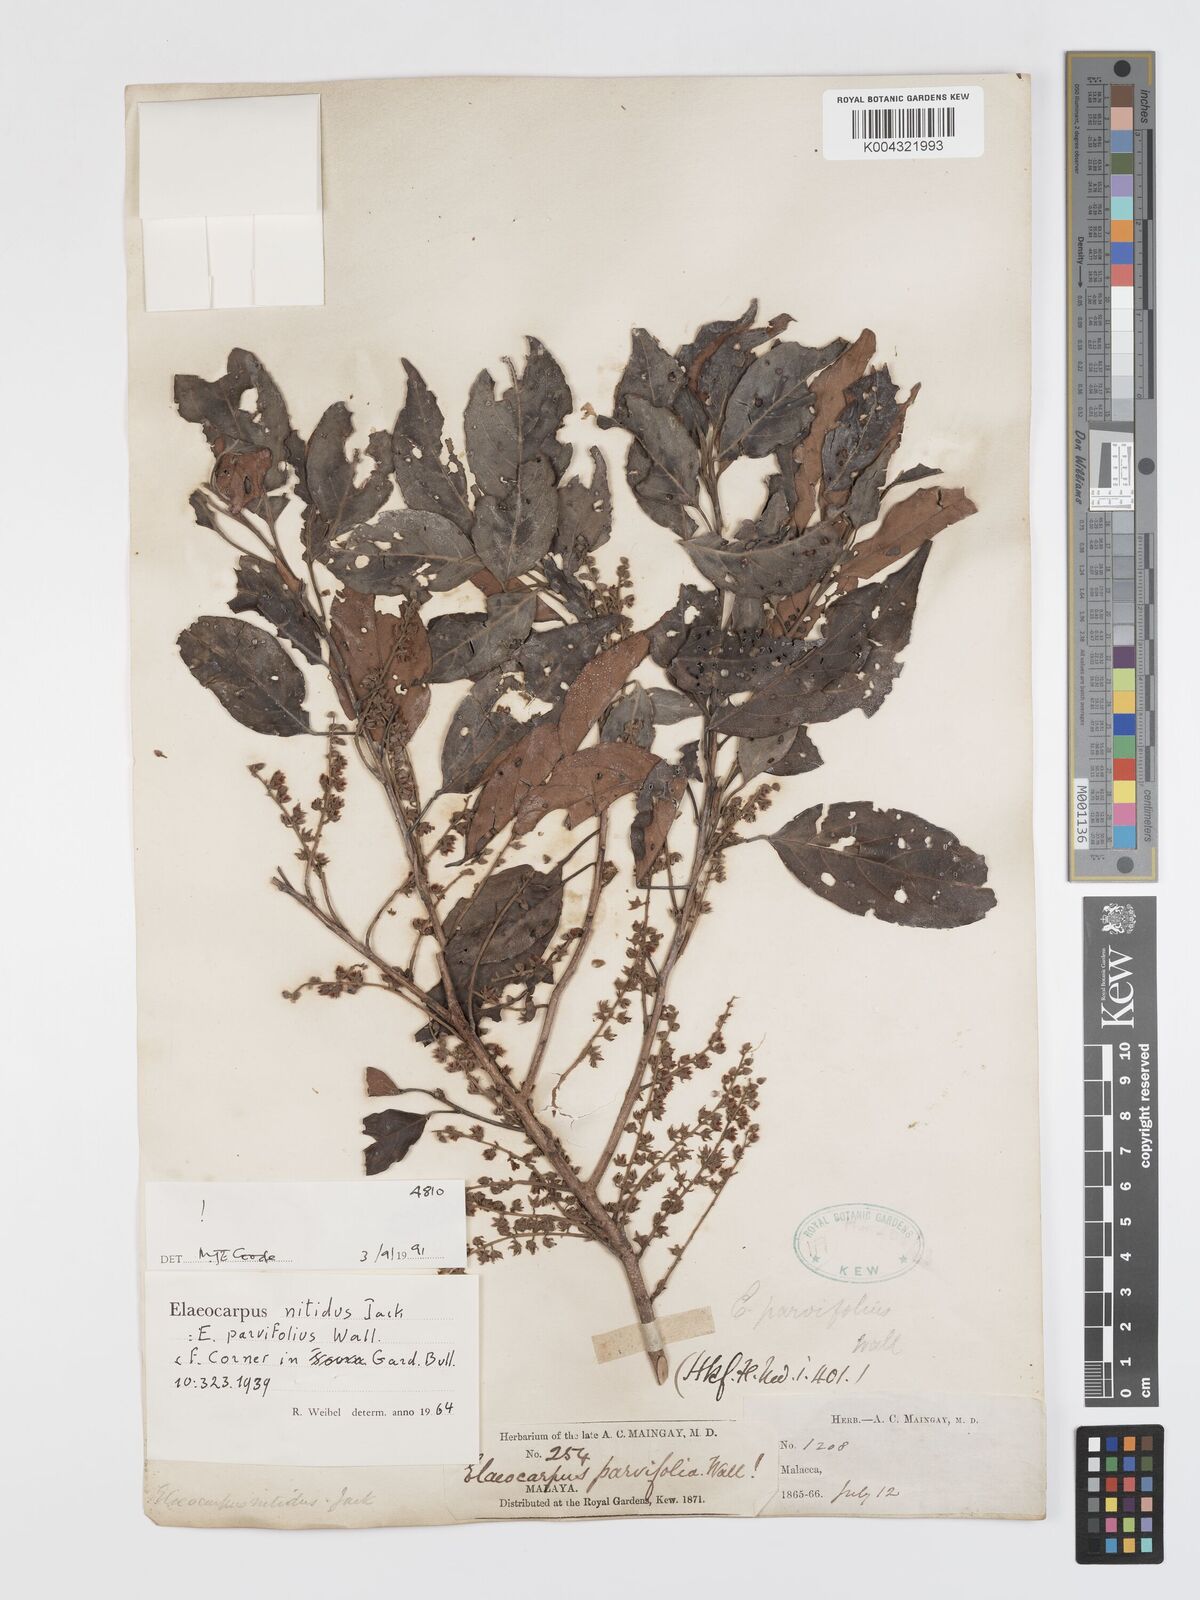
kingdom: Plantae
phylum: Tracheophyta
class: Magnoliopsida
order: Oxalidales
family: Elaeocarpaceae
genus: Elaeocarpus
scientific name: Elaeocarpus nitidus
